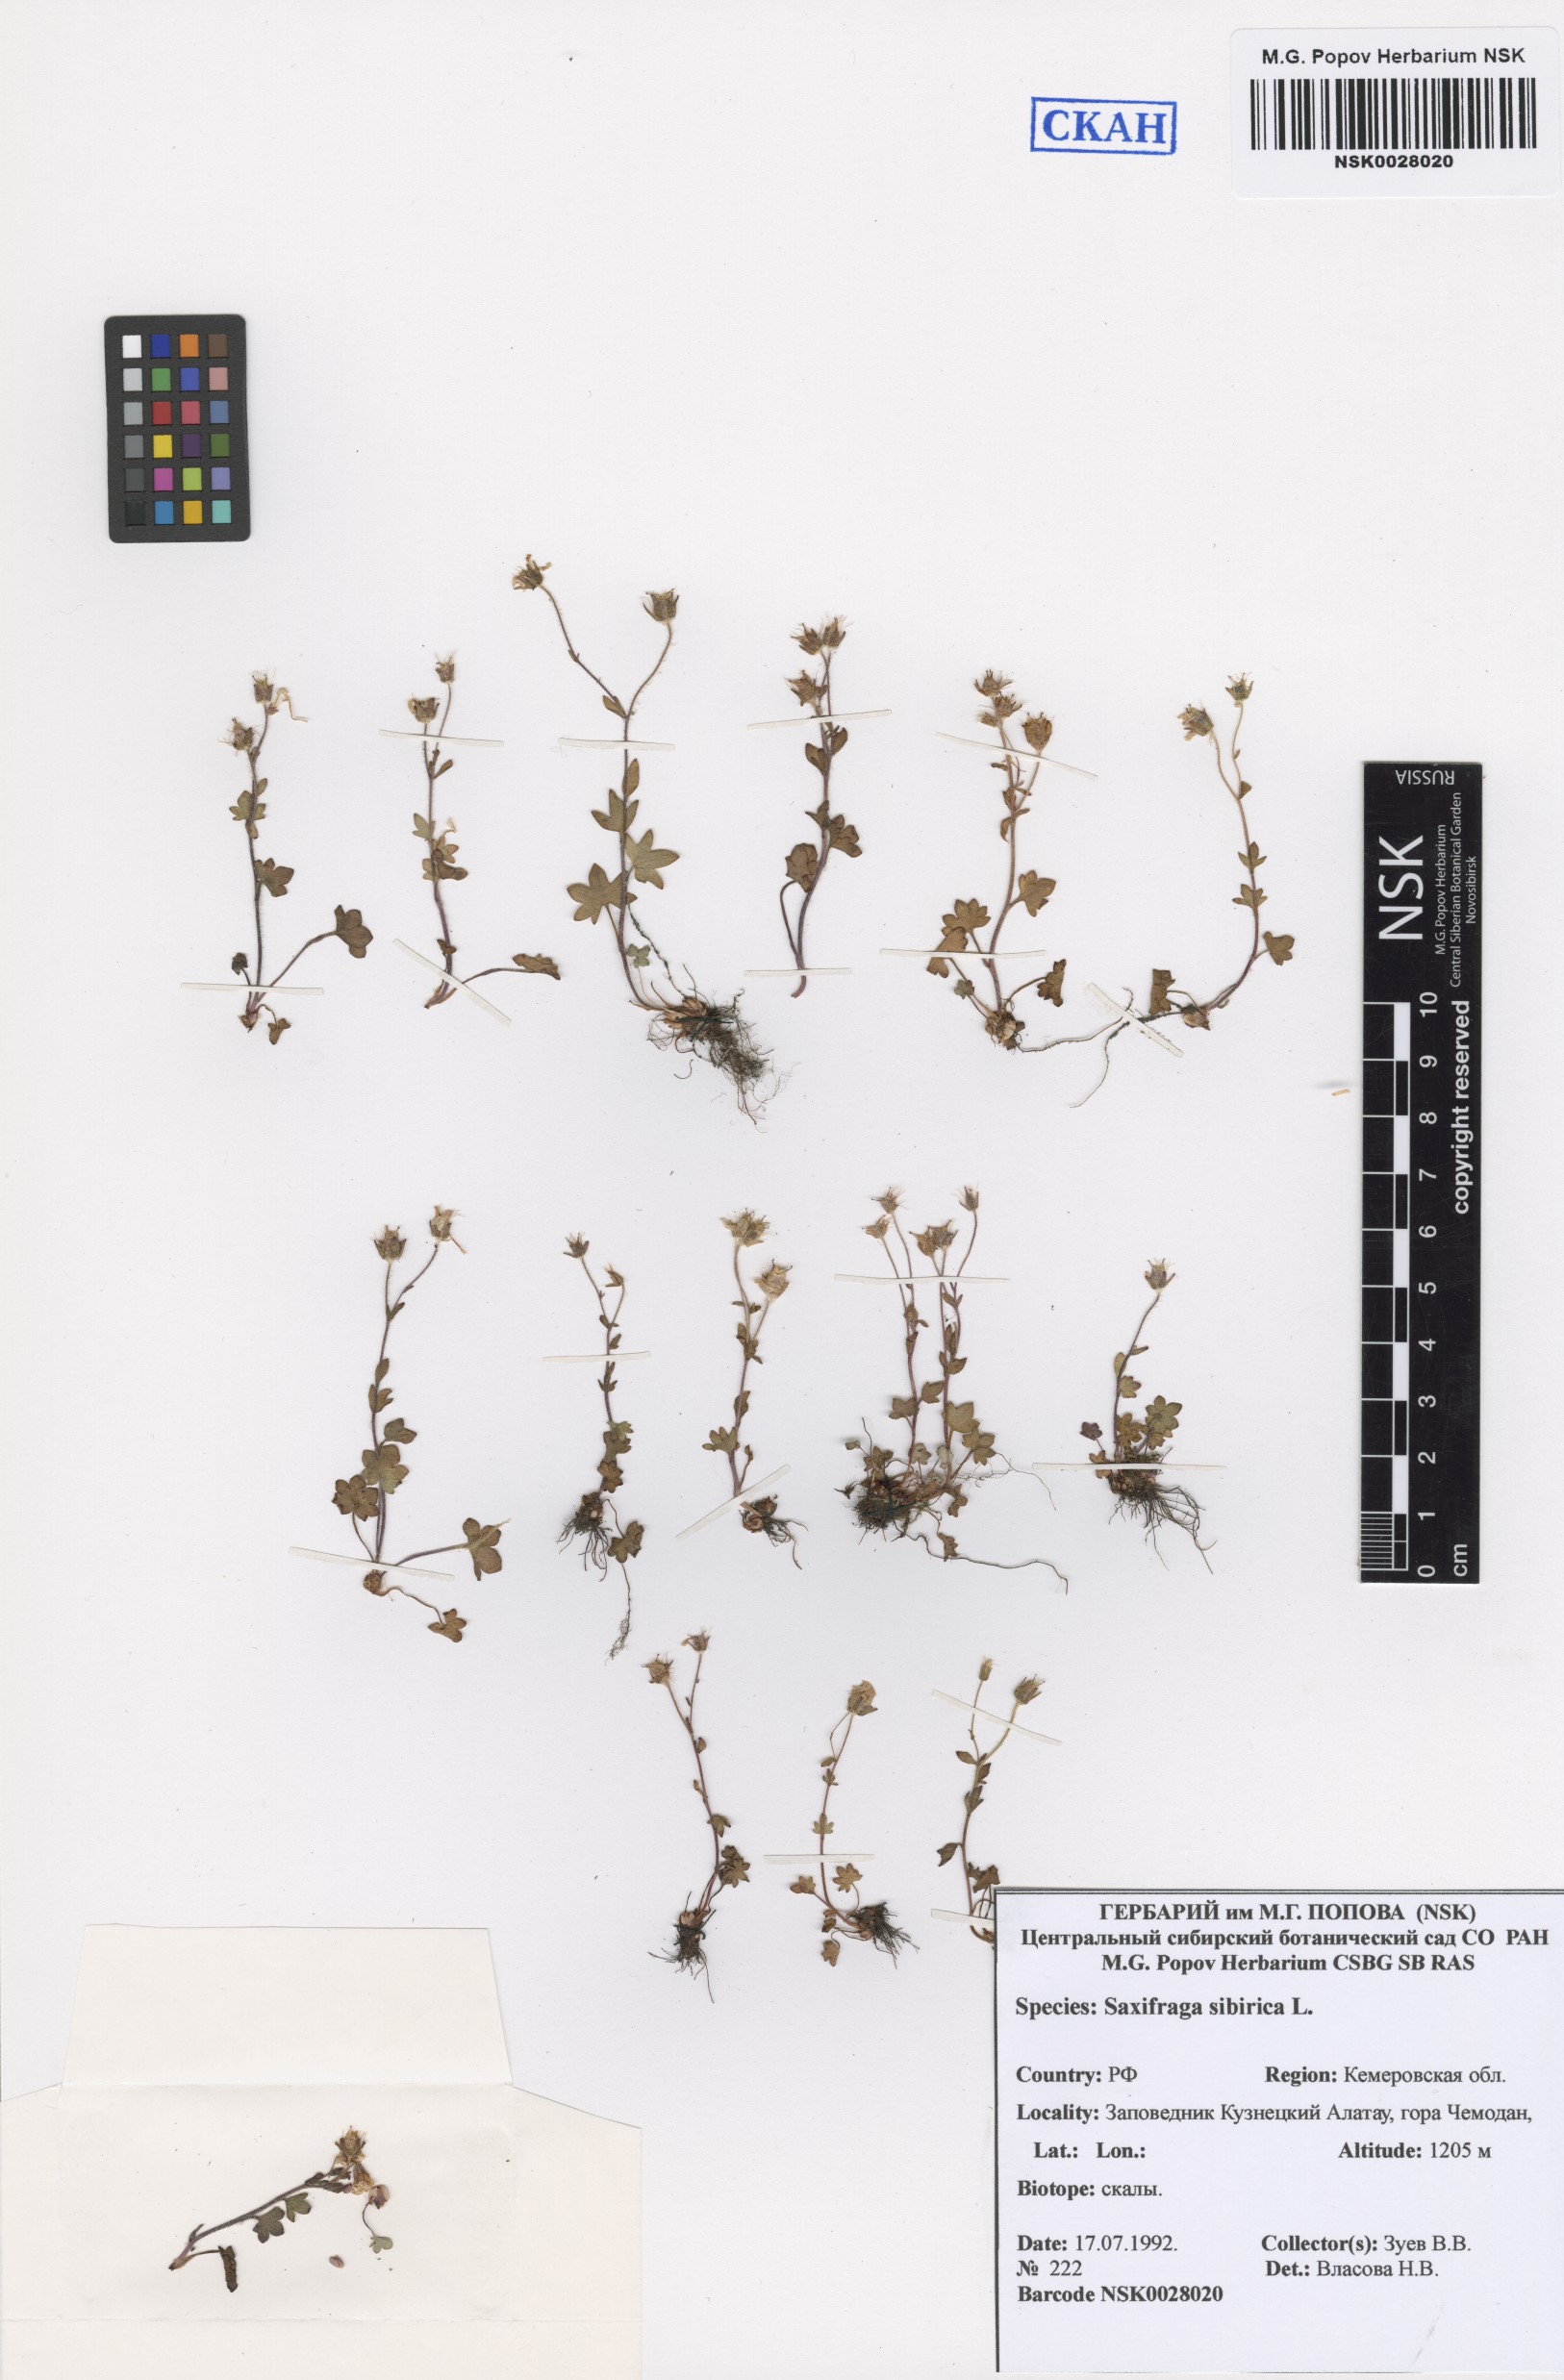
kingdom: Plantae
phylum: Tracheophyta
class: Magnoliopsida
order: Saxifragales
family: Saxifragaceae
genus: Saxifraga
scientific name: Saxifraga sibirica
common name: Siberian saxifrage
